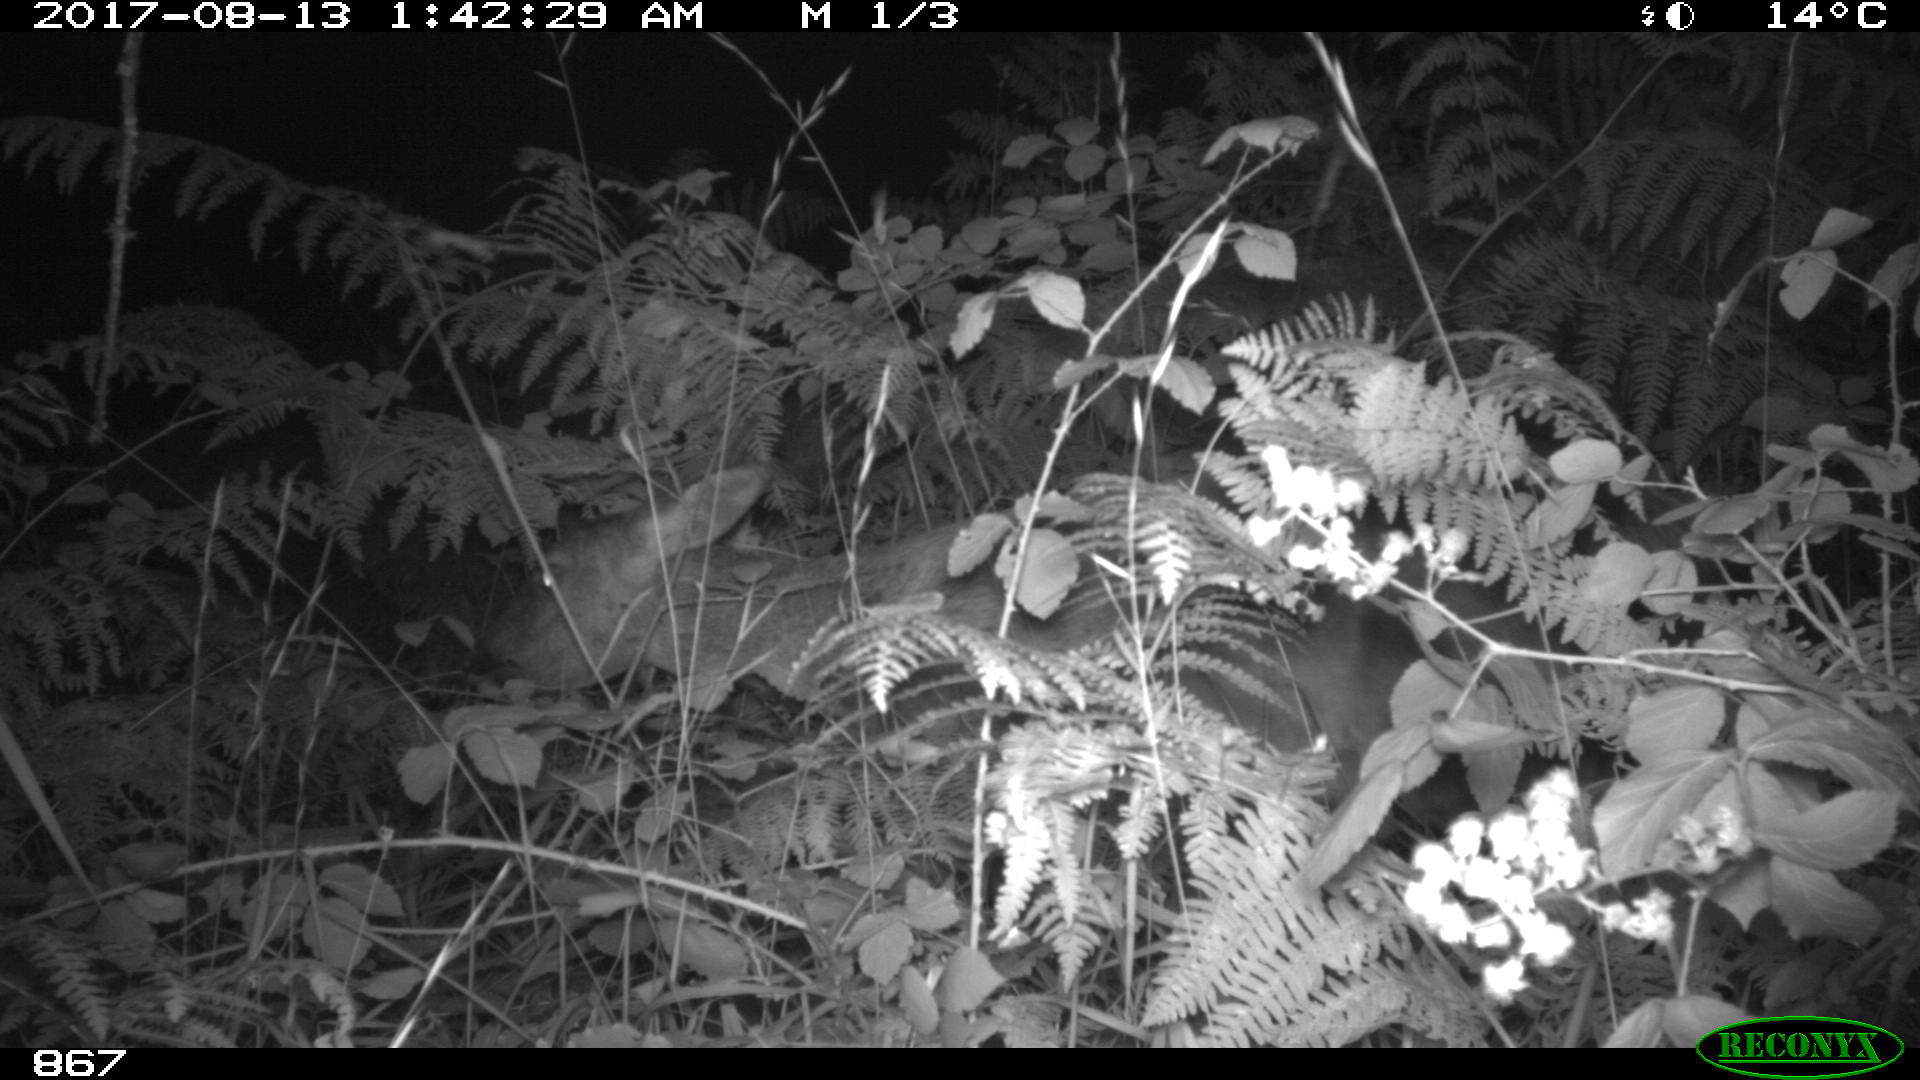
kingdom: Animalia
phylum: Chordata
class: Mammalia
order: Artiodactyla
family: Cervidae
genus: Capreolus
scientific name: Capreolus capreolus
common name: Western roe deer
